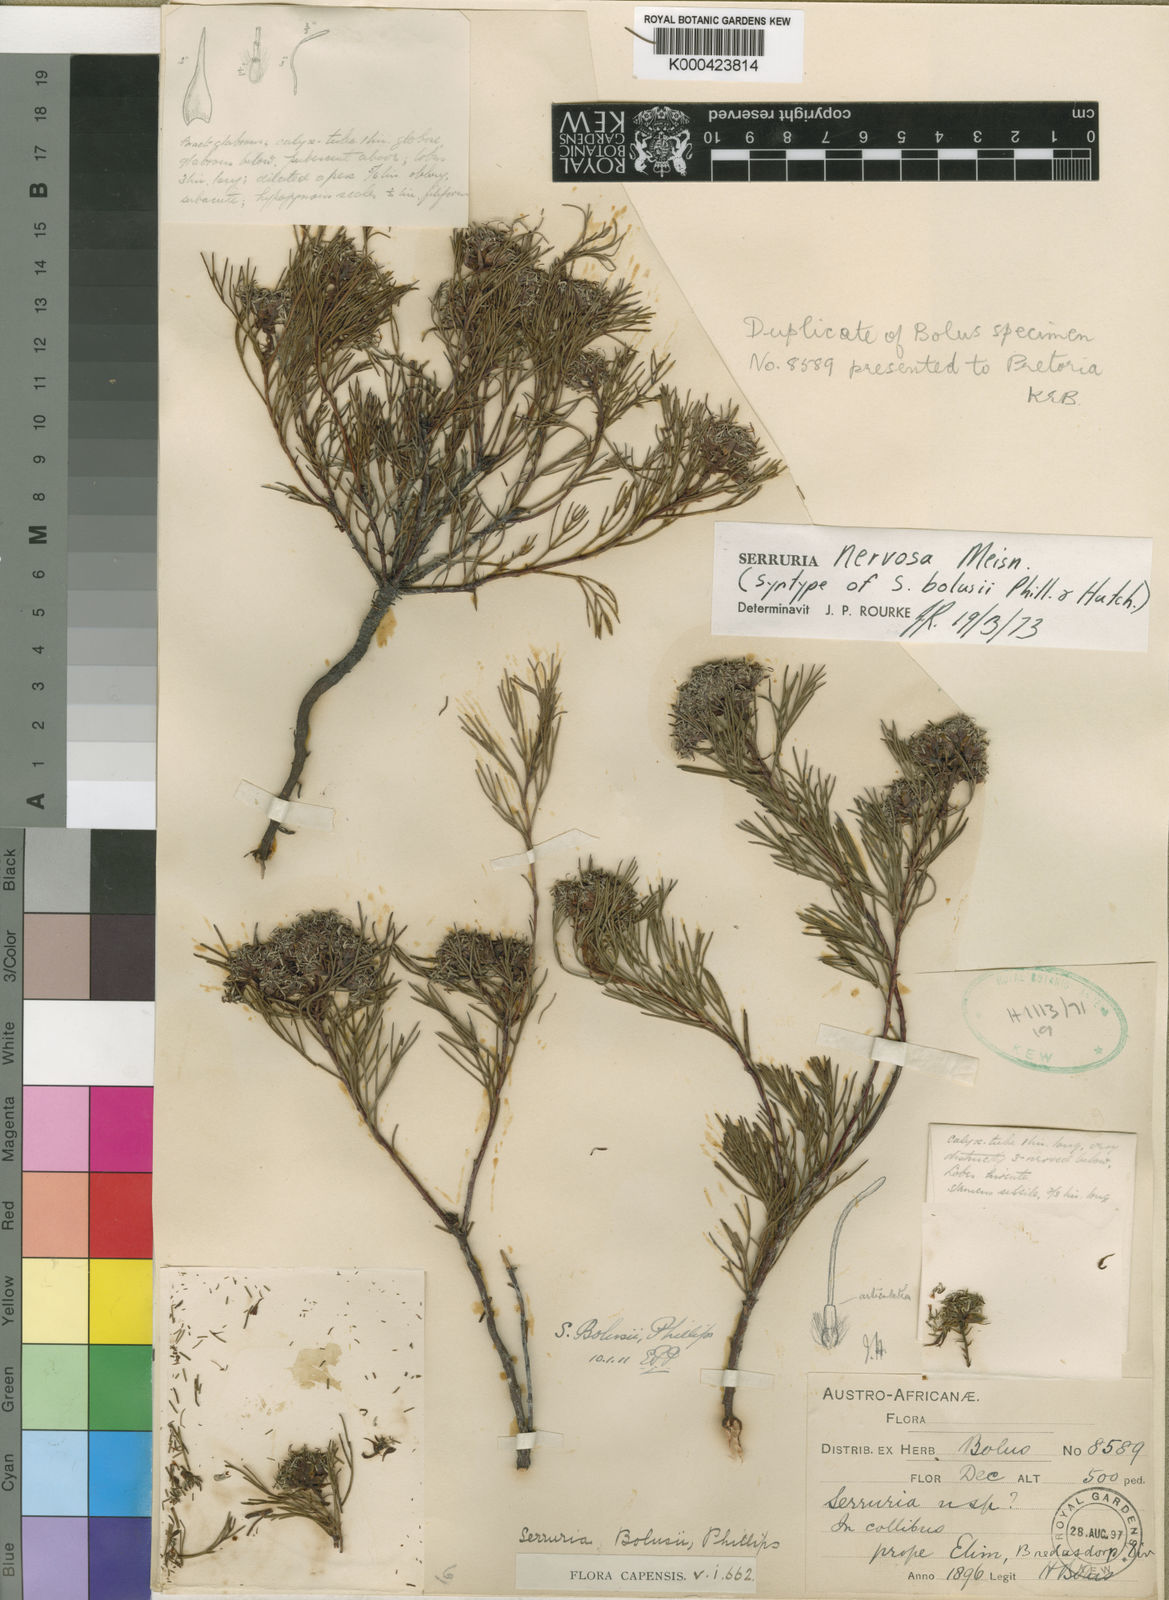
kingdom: Plantae
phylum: Tracheophyta
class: Magnoliopsida
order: Proteales
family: Proteaceae
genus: Serruria
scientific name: Serruria bolusii
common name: Agulhas spiderhead
